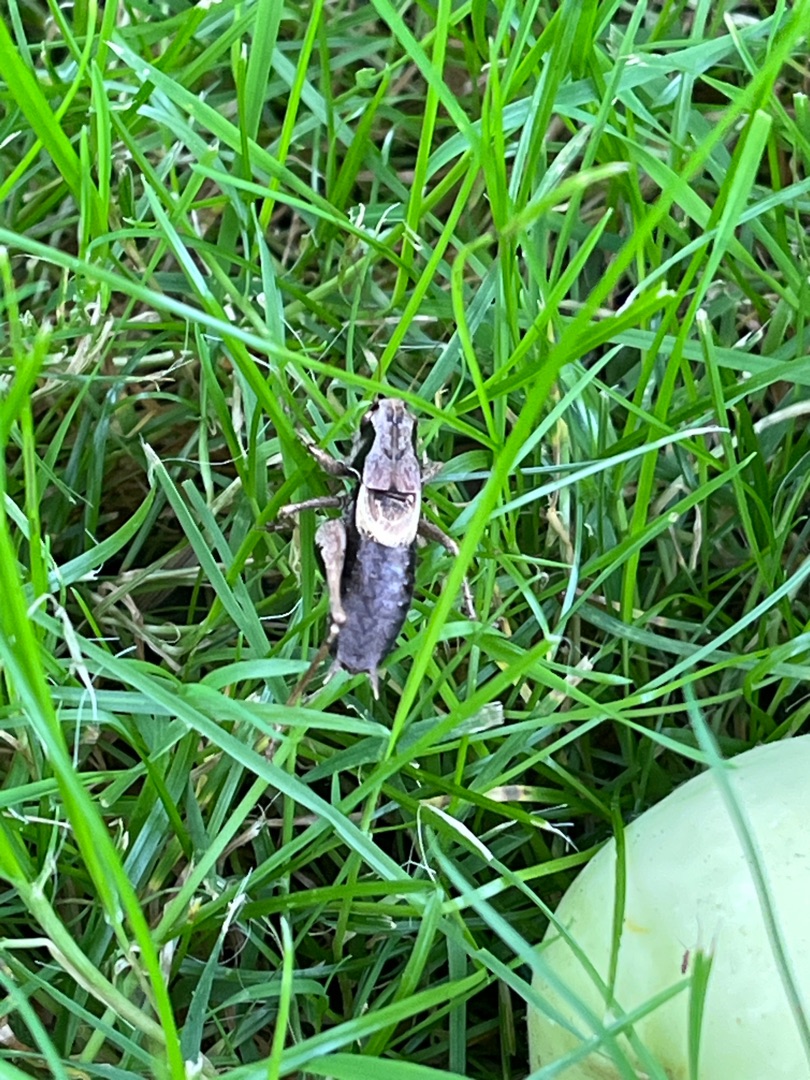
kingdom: Animalia
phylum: Arthropoda
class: Insecta
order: Orthoptera
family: Tettigoniidae
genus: Pholidoptera
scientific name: Pholidoptera griseoaptera
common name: Buskgræshoppe
